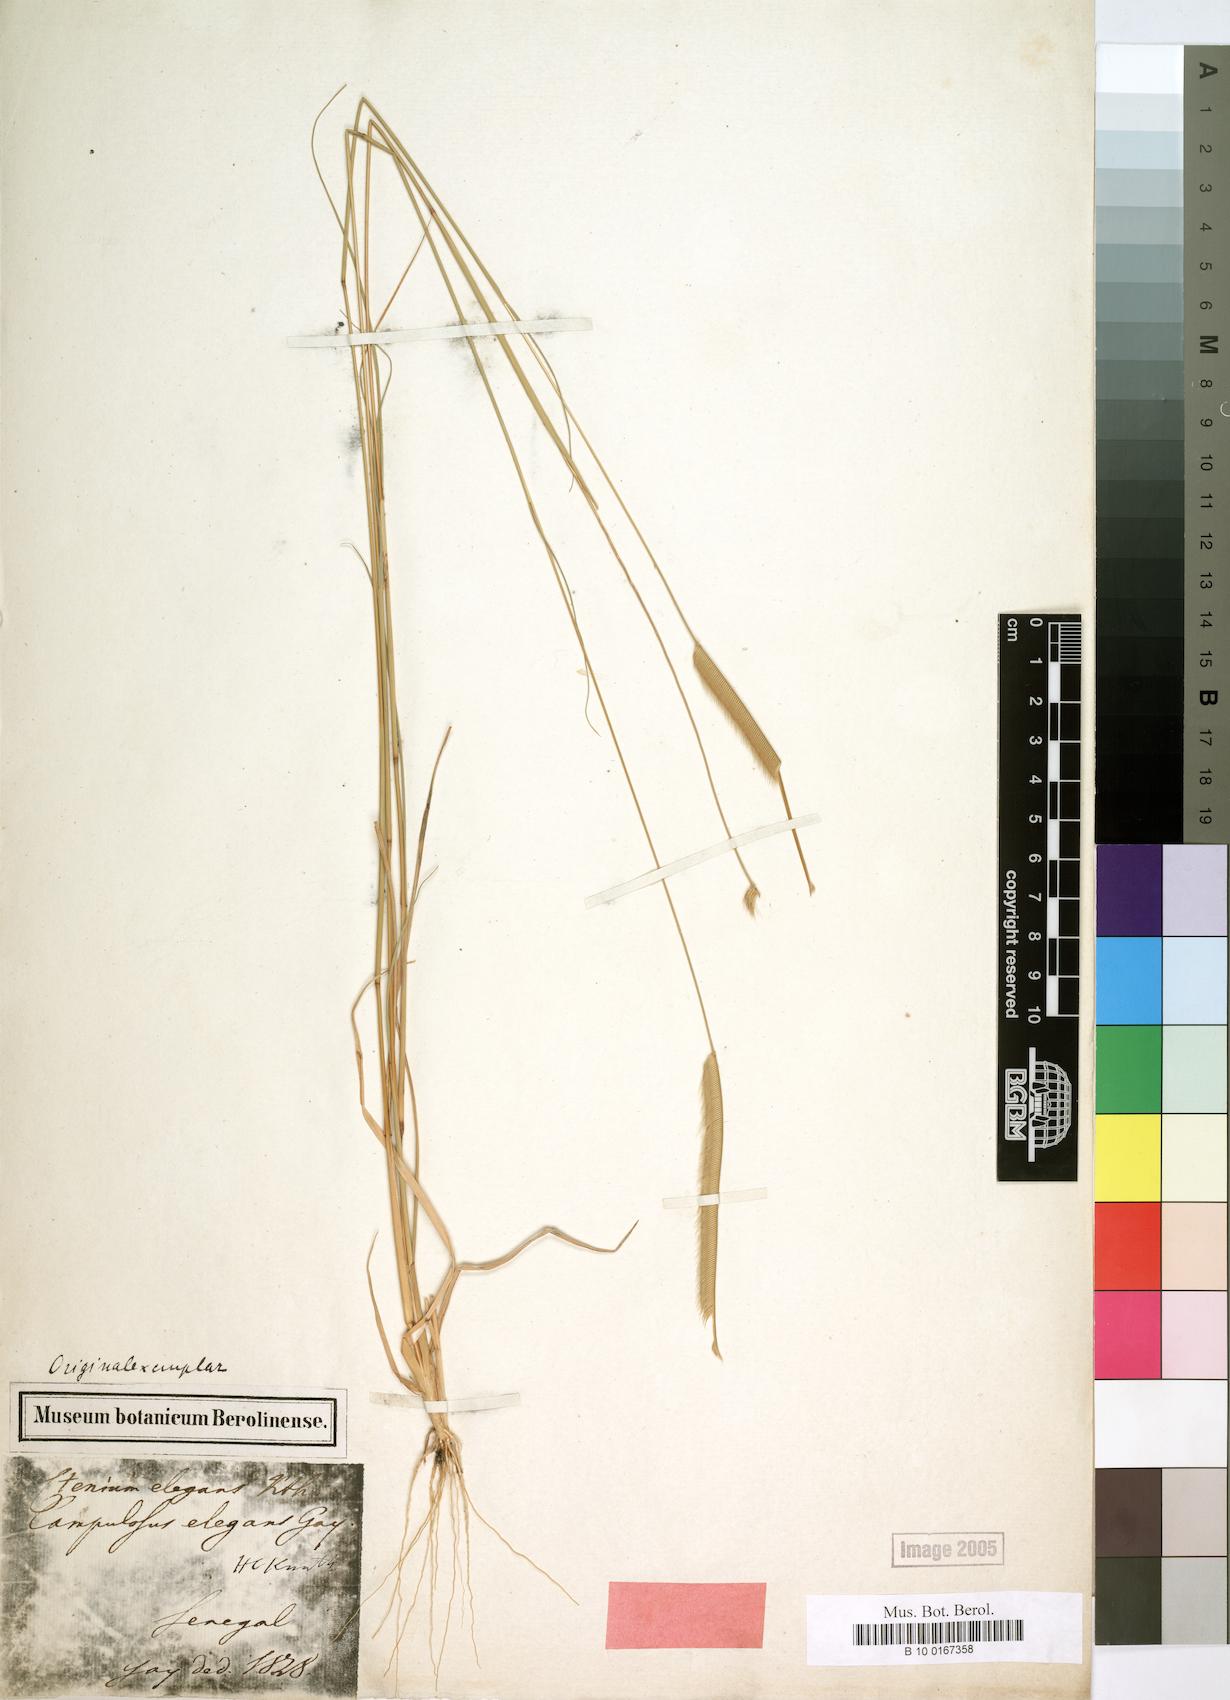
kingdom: Plantae
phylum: Tracheophyta
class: Liliopsida
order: Poales
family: Poaceae
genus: Ctenium
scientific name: Ctenium elegans
